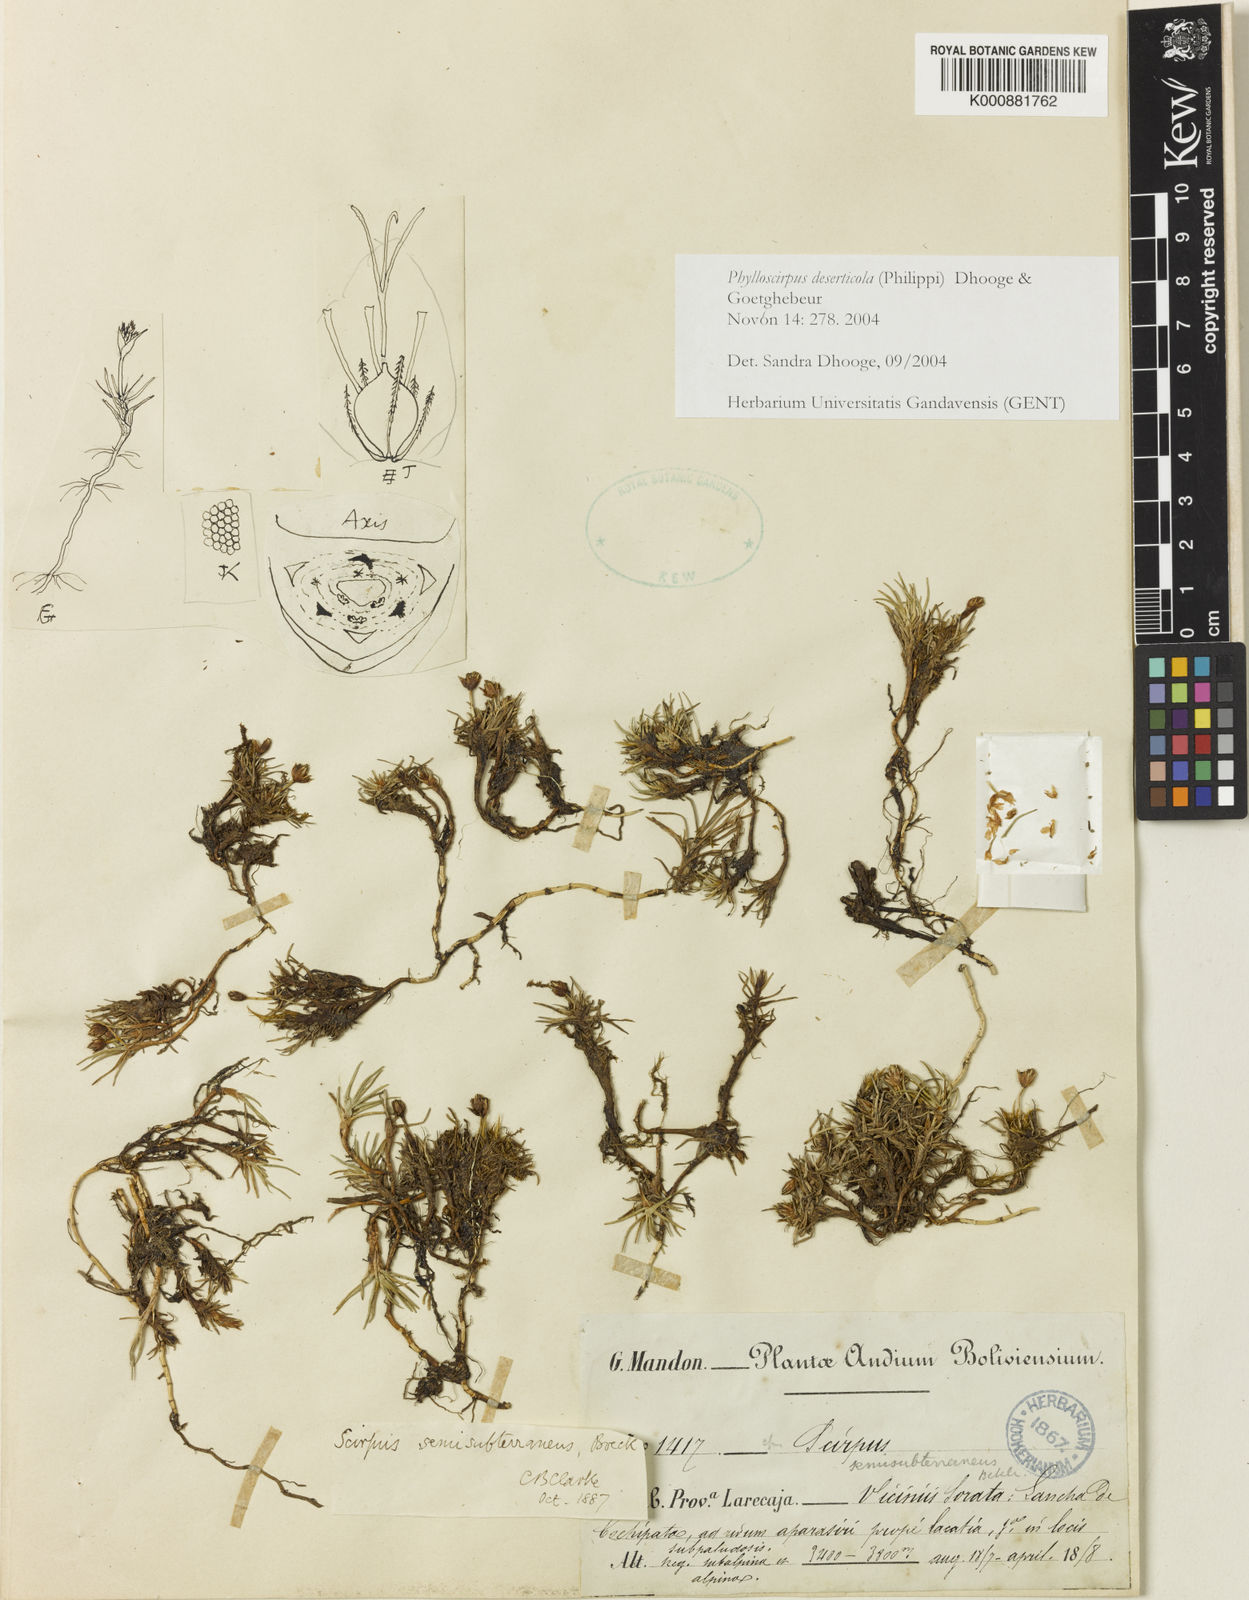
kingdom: Plantae
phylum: Tracheophyta
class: Liliopsida
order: Poales
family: Cyperaceae
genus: Phylloscirpus
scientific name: Phylloscirpus deserticola
